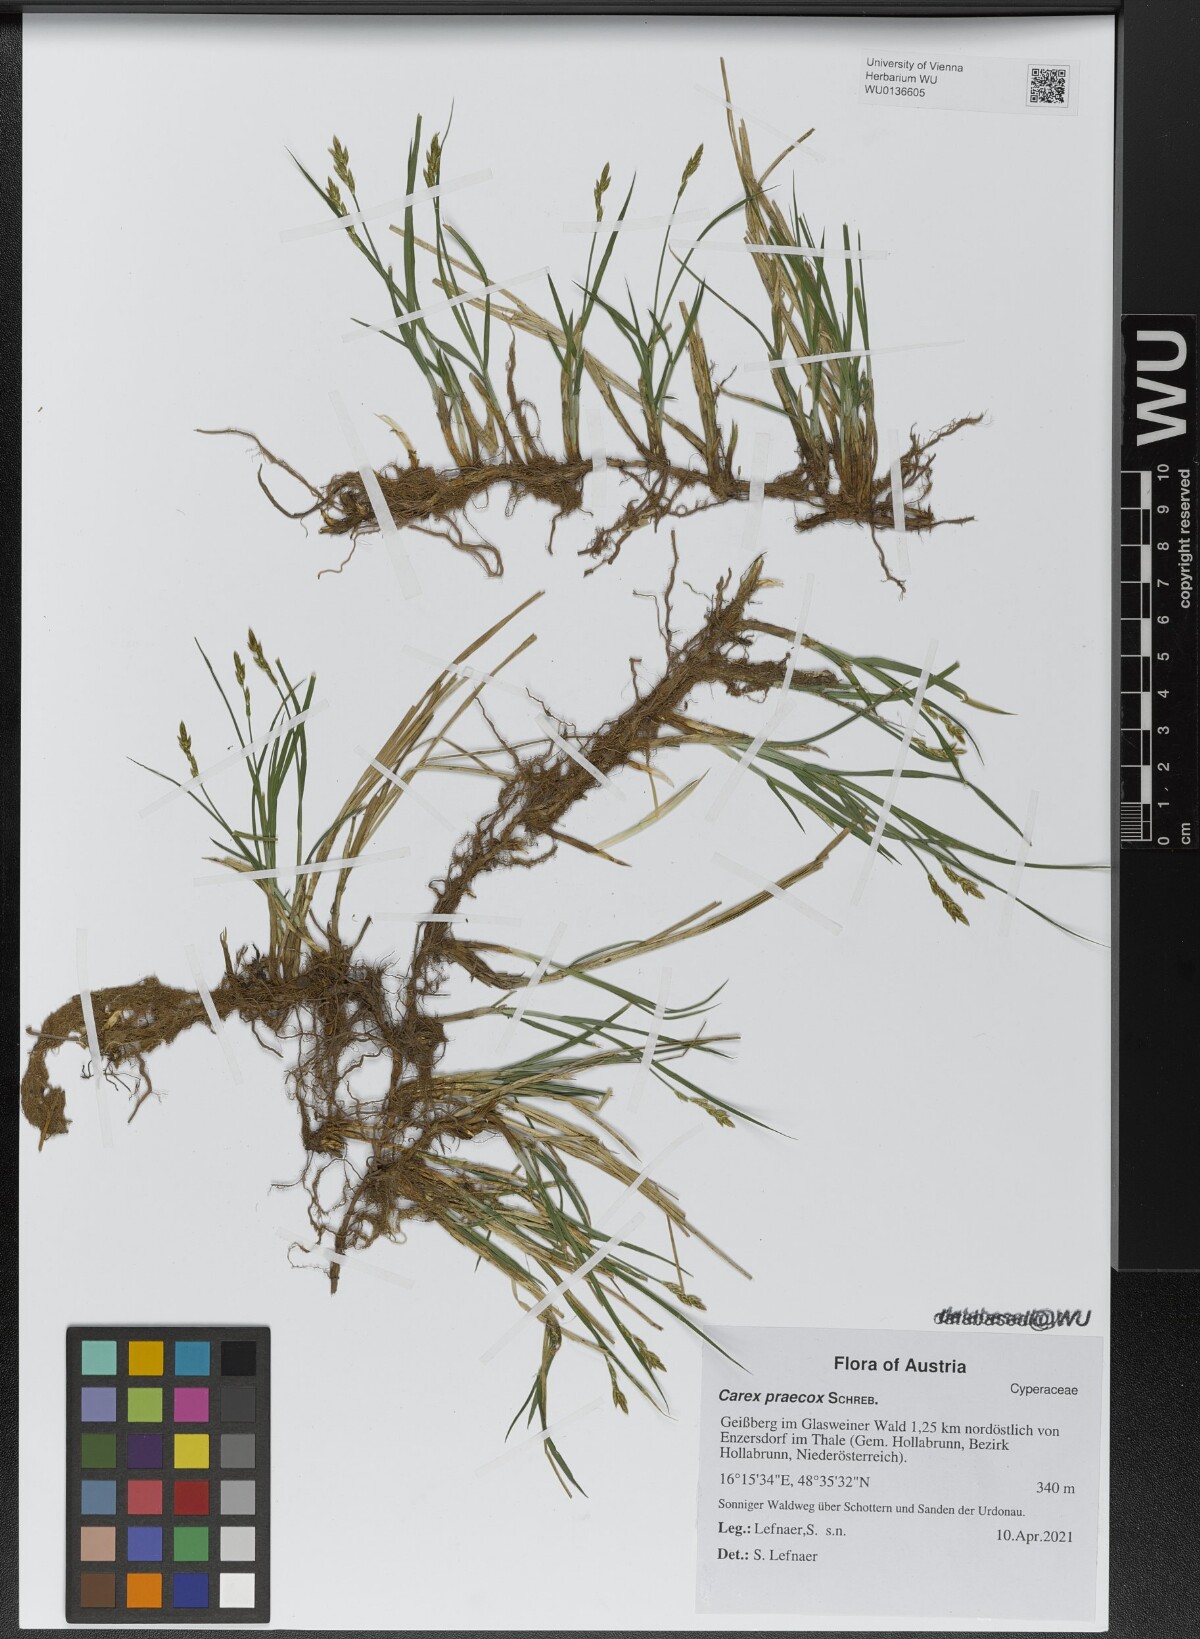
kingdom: Plantae
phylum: Tracheophyta
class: Liliopsida
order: Poales
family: Cyperaceae
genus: Carex
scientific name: Carex praecox
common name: Early sedge
